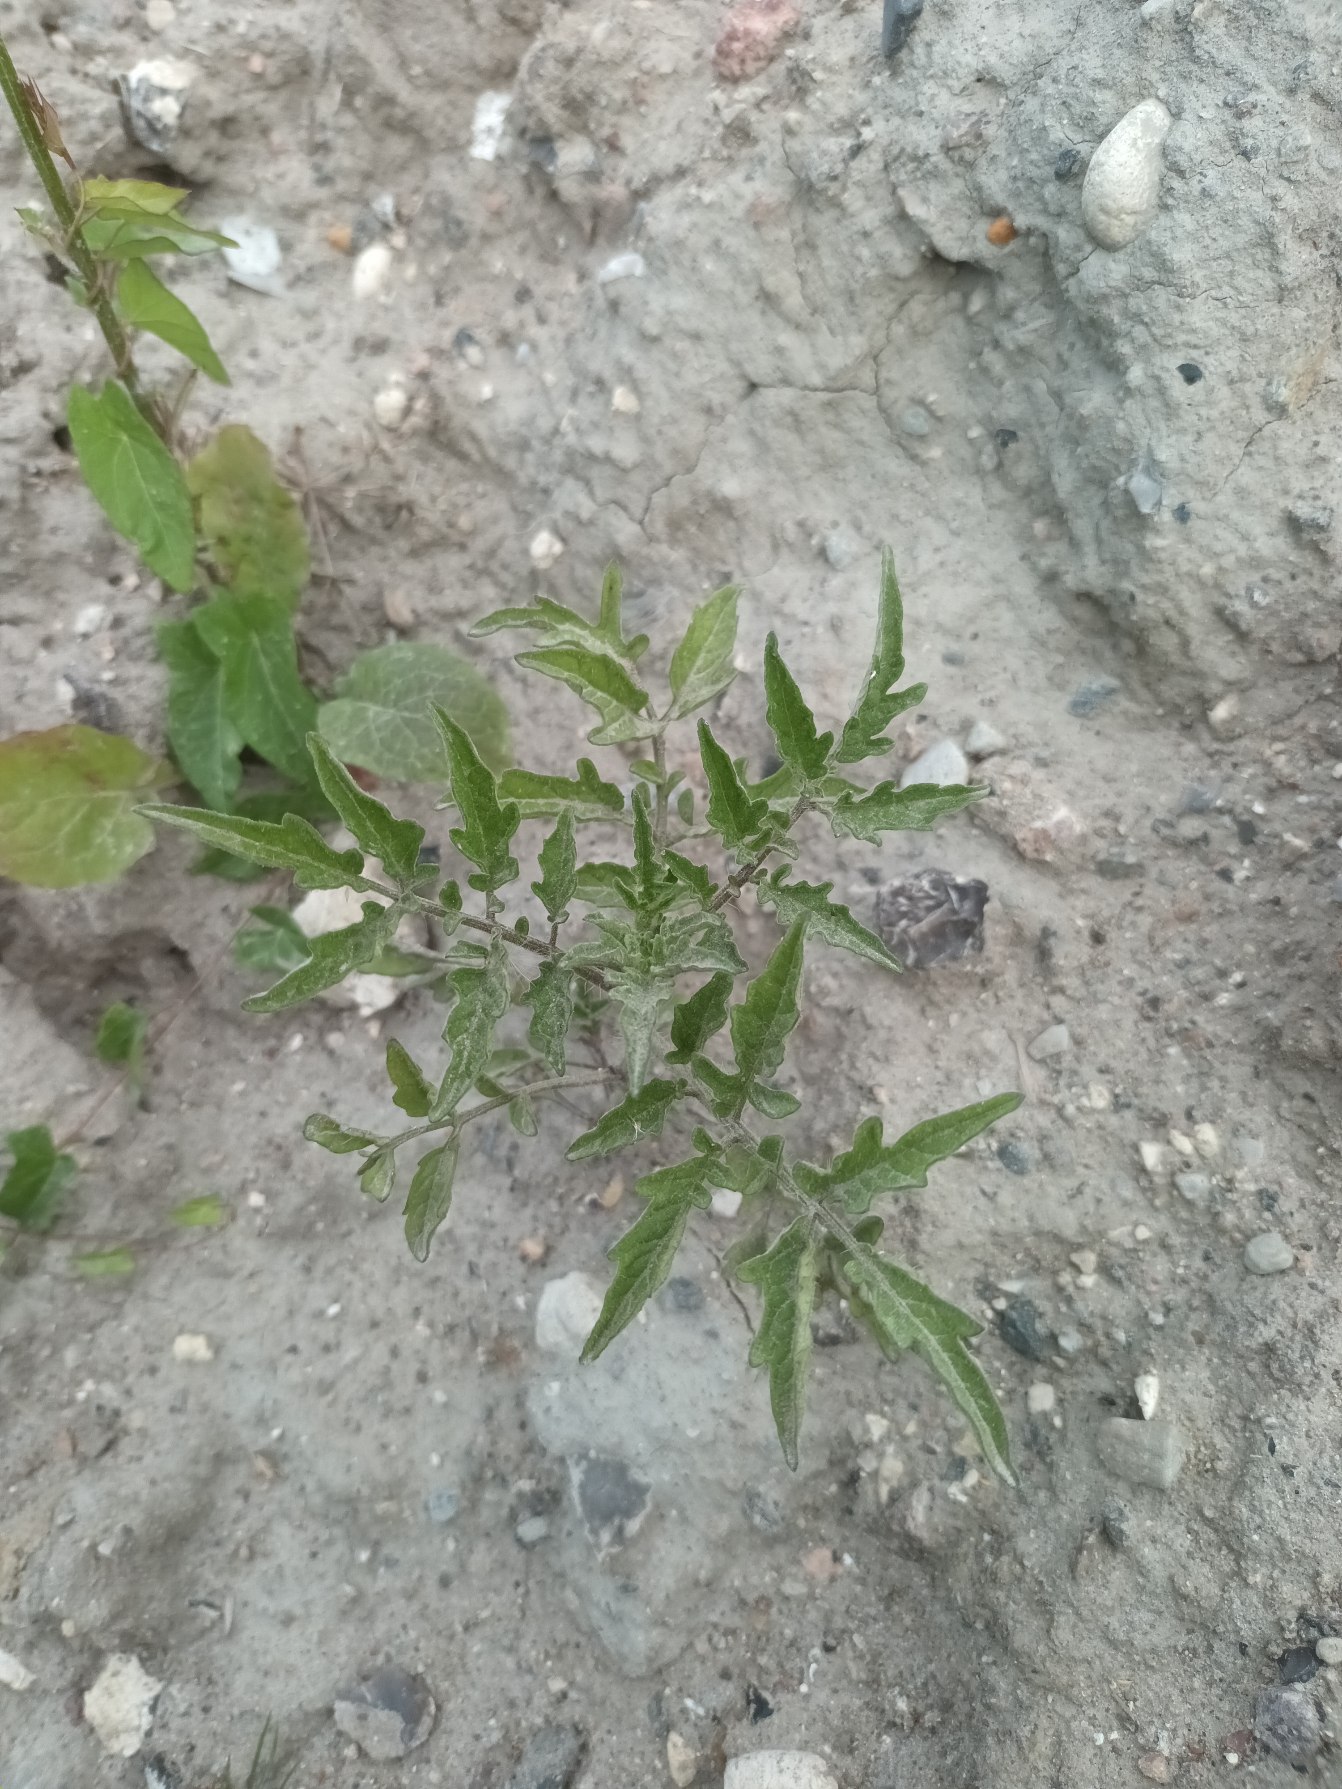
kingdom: Plantae
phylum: Tracheophyta
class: Magnoliopsida
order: Solanales
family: Solanaceae
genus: Solanum
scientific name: Solanum lycopersicum
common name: Tomat
